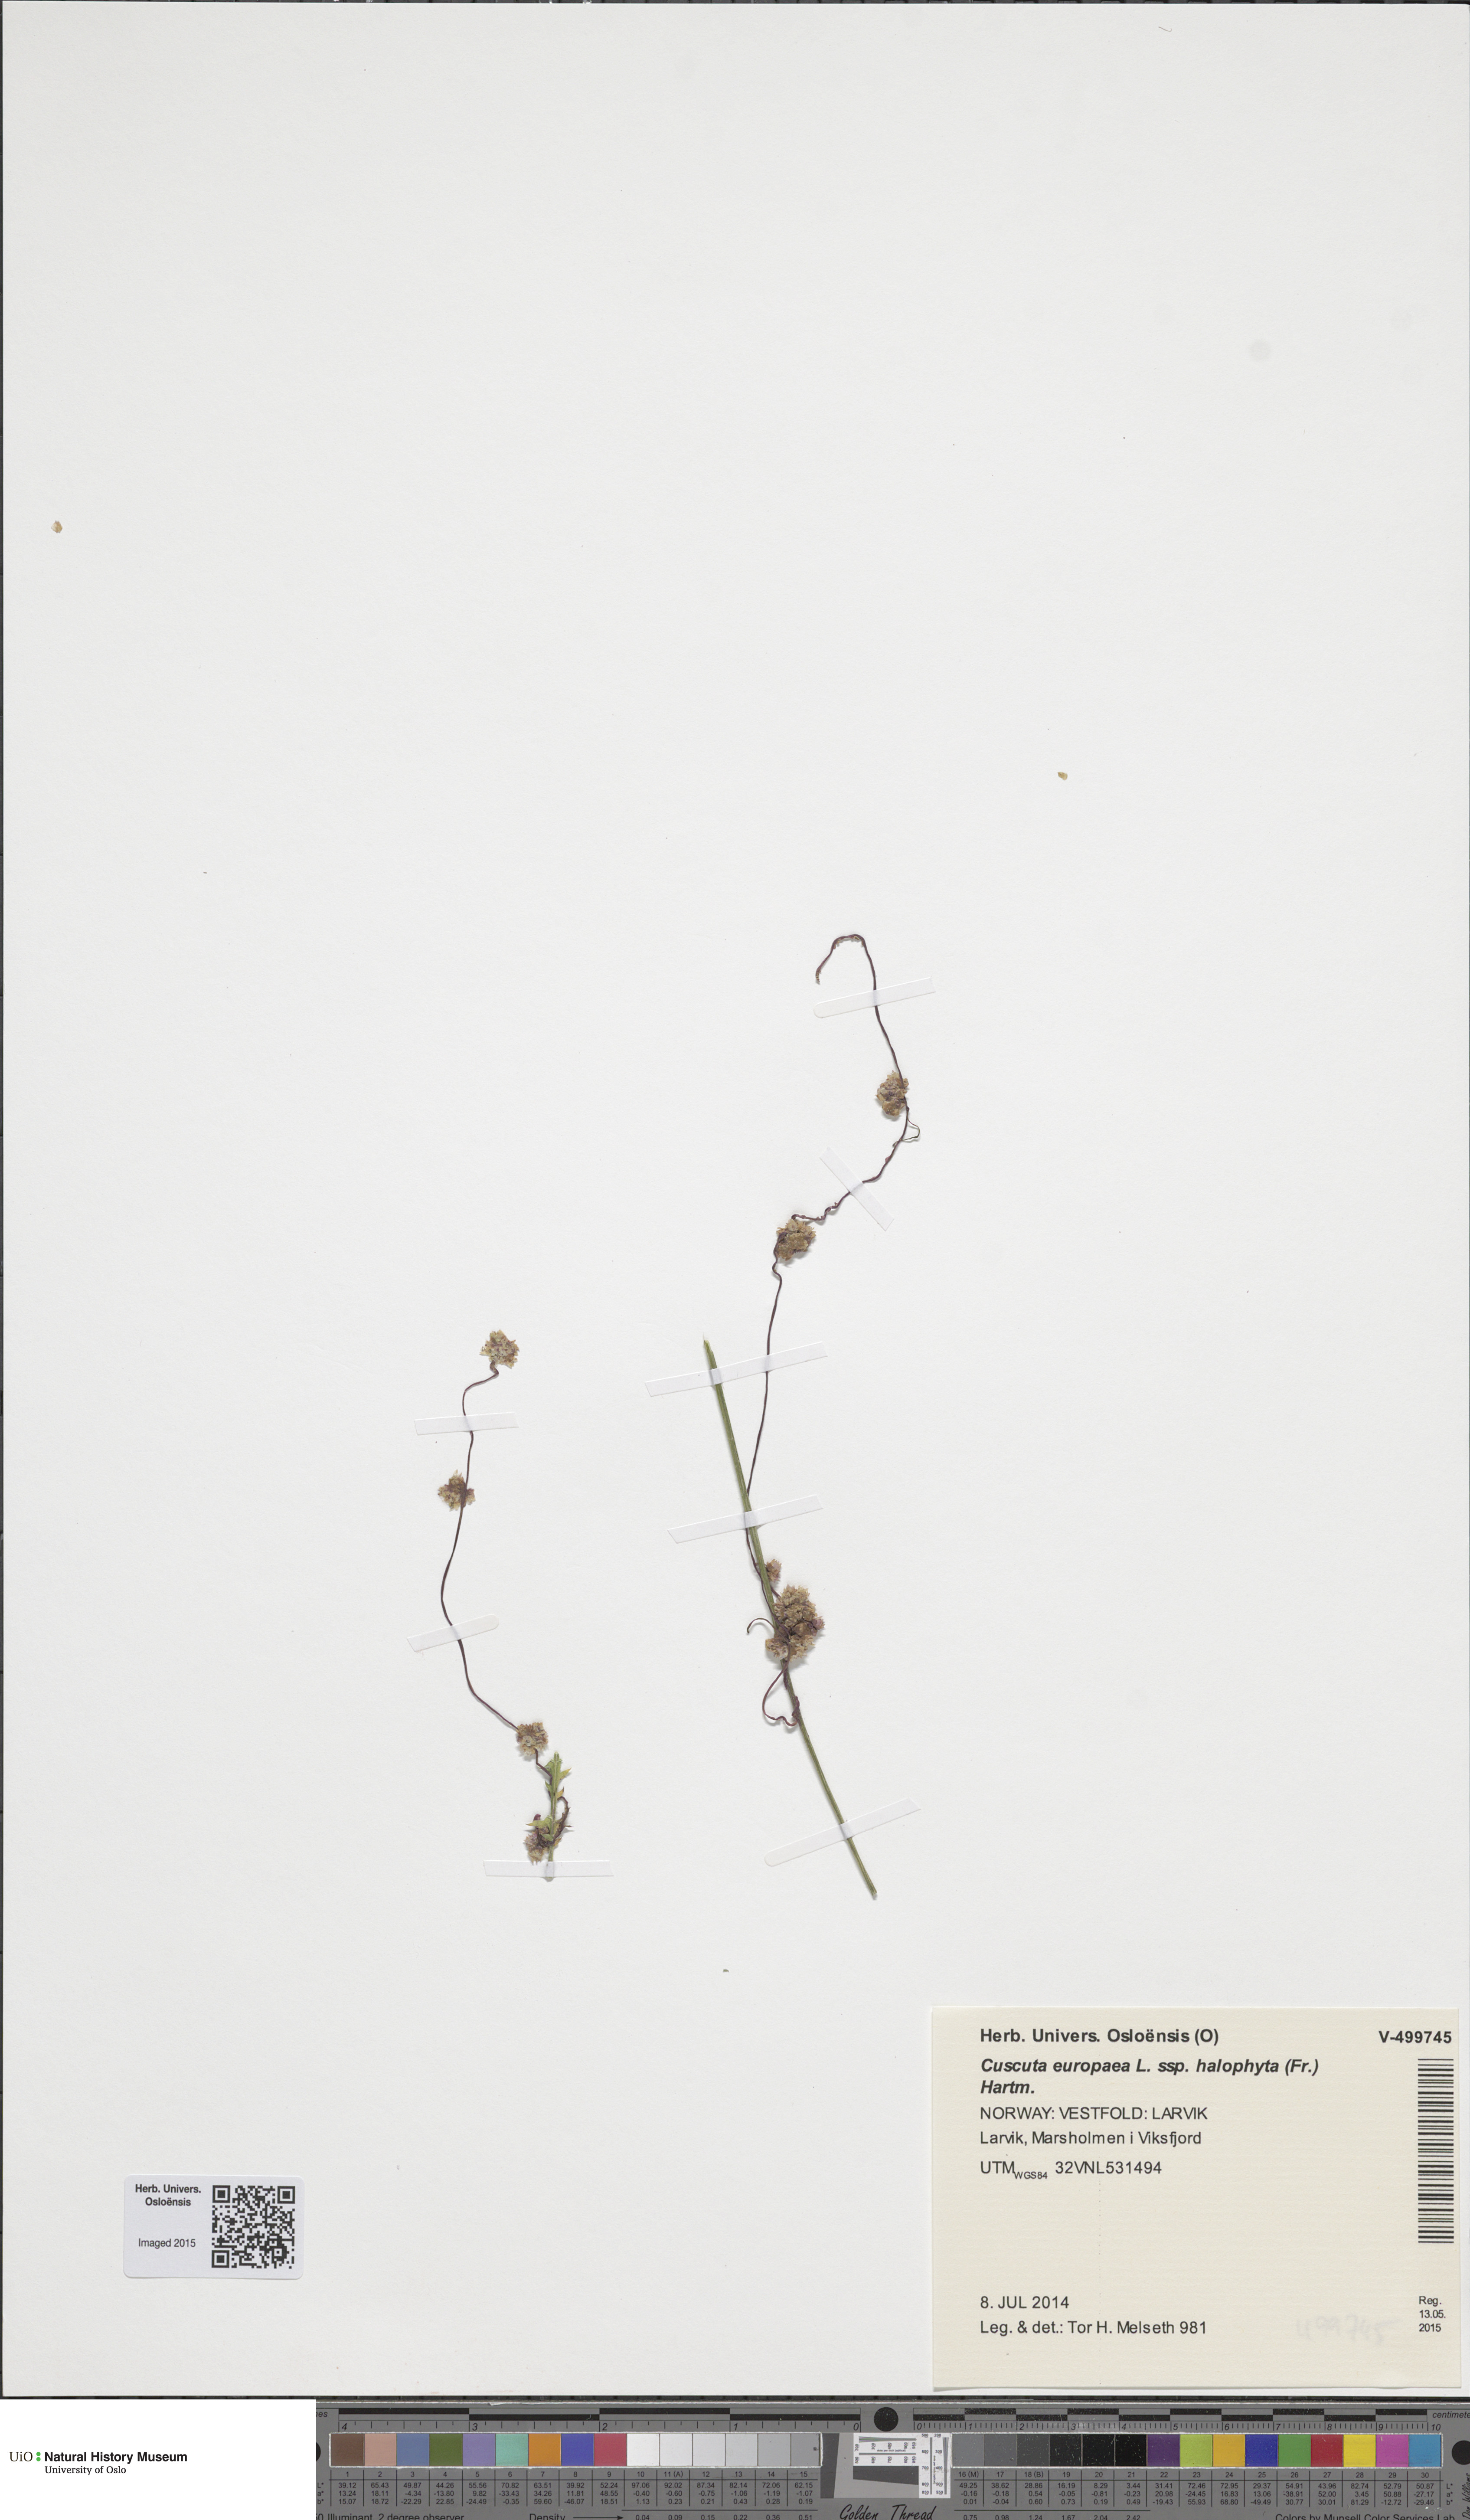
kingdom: Plantae
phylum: Tracheophyta
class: Magnoliopsida
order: Solanales
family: Convolvulaceae
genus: Cuscuta
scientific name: Cuscuta europaea
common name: Greater dodder
